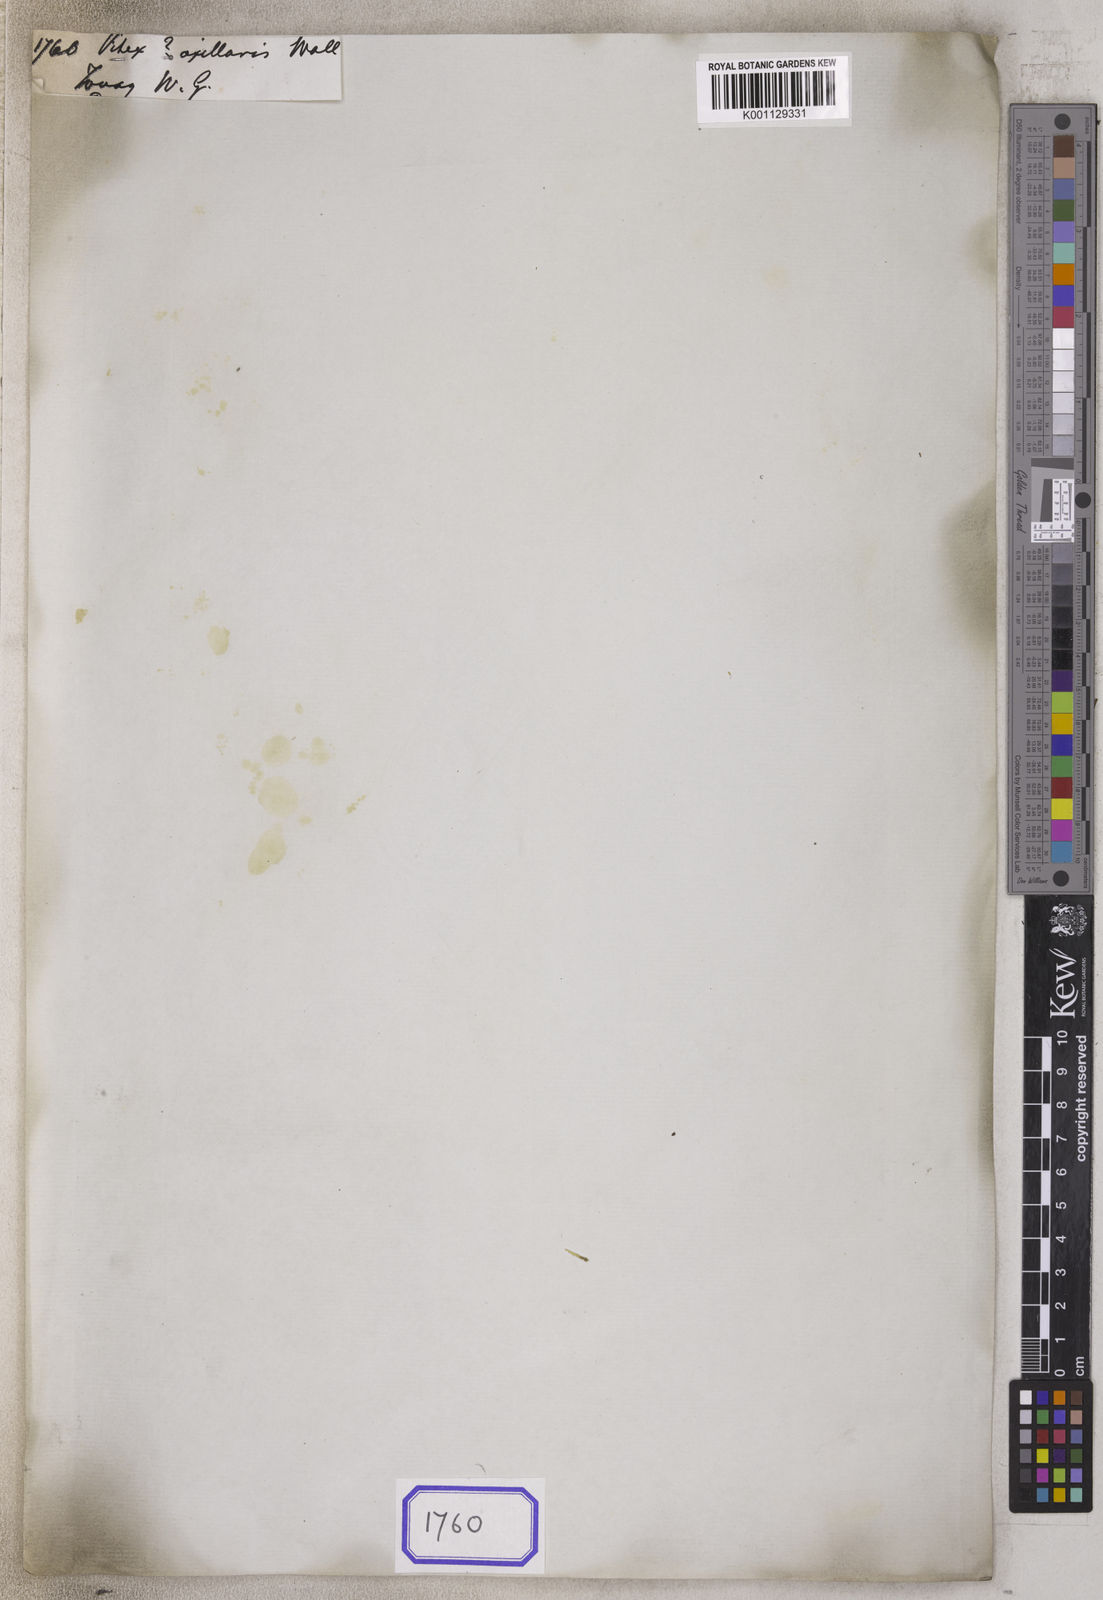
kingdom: Plantae
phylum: Tracheophyta
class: Magnoliopsida
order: Lamiales
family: Lamiaceae
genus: Vitex
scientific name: Vitex
